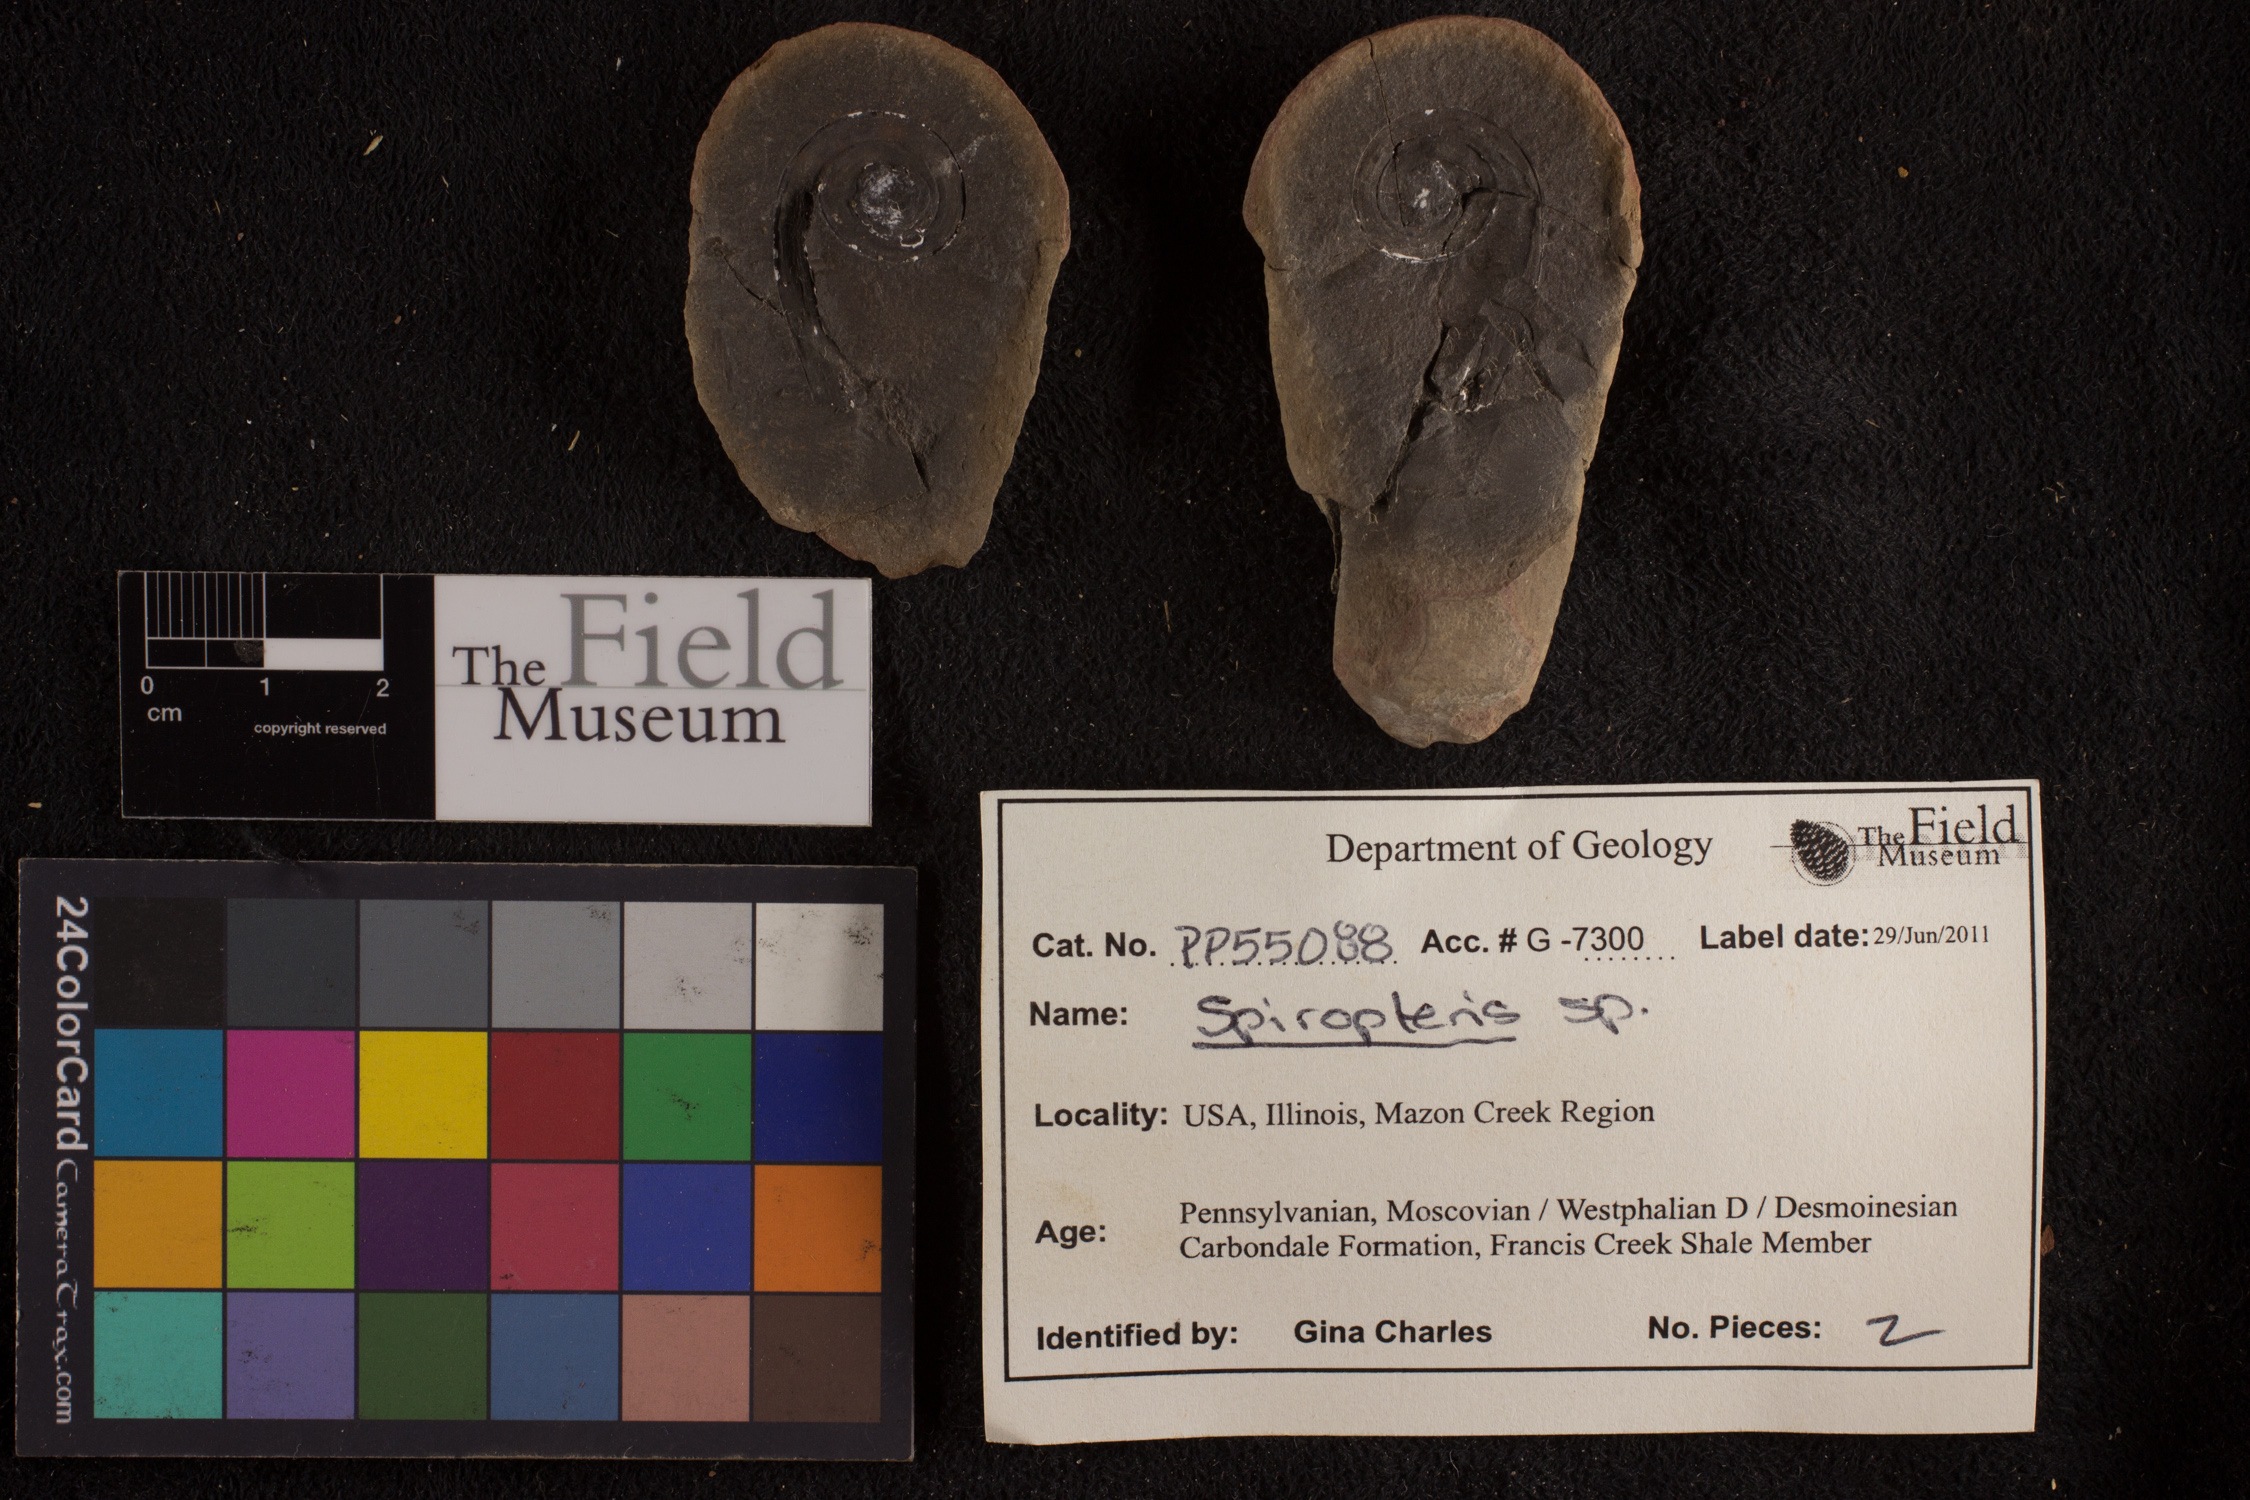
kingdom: Plantae
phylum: Tracheophyta
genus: Spiropteris
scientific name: Spiropteris
